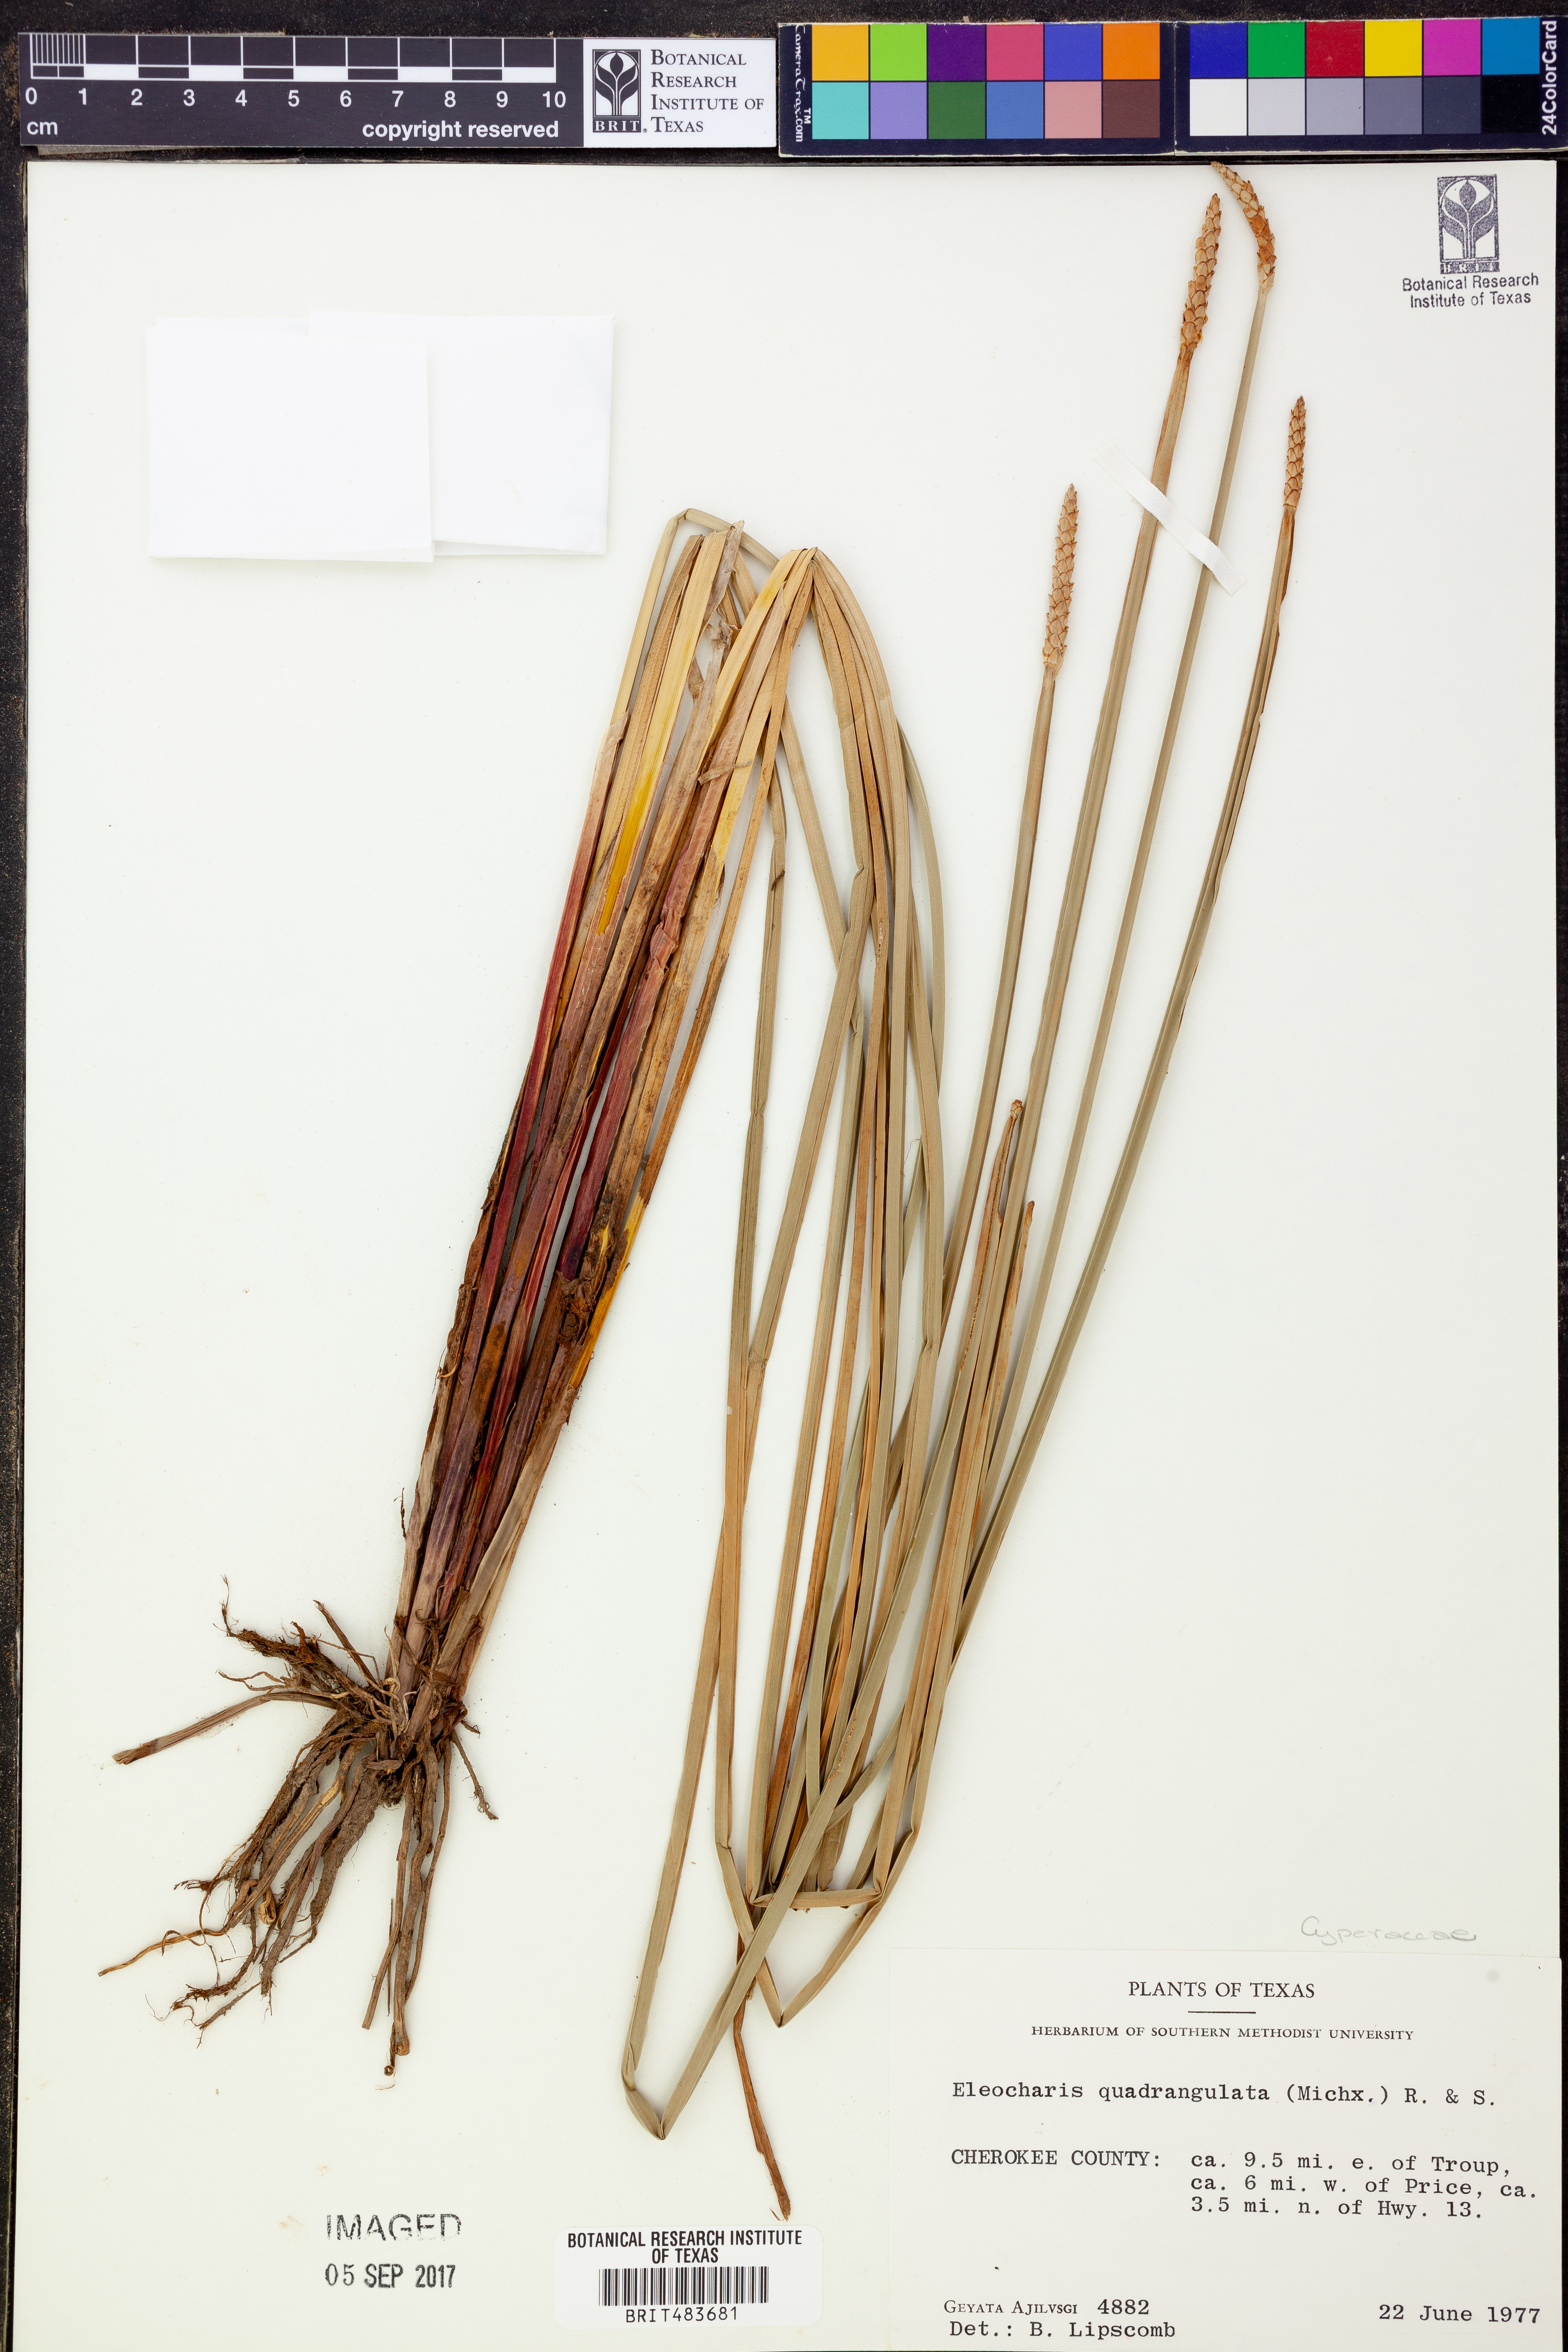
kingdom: Plantae
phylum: Tracheophyta
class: Liliopsida
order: Poales
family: Cyperaceae
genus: Eleocharis
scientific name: Eleocharis quadrangulata
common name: Square-stem spike-rush
